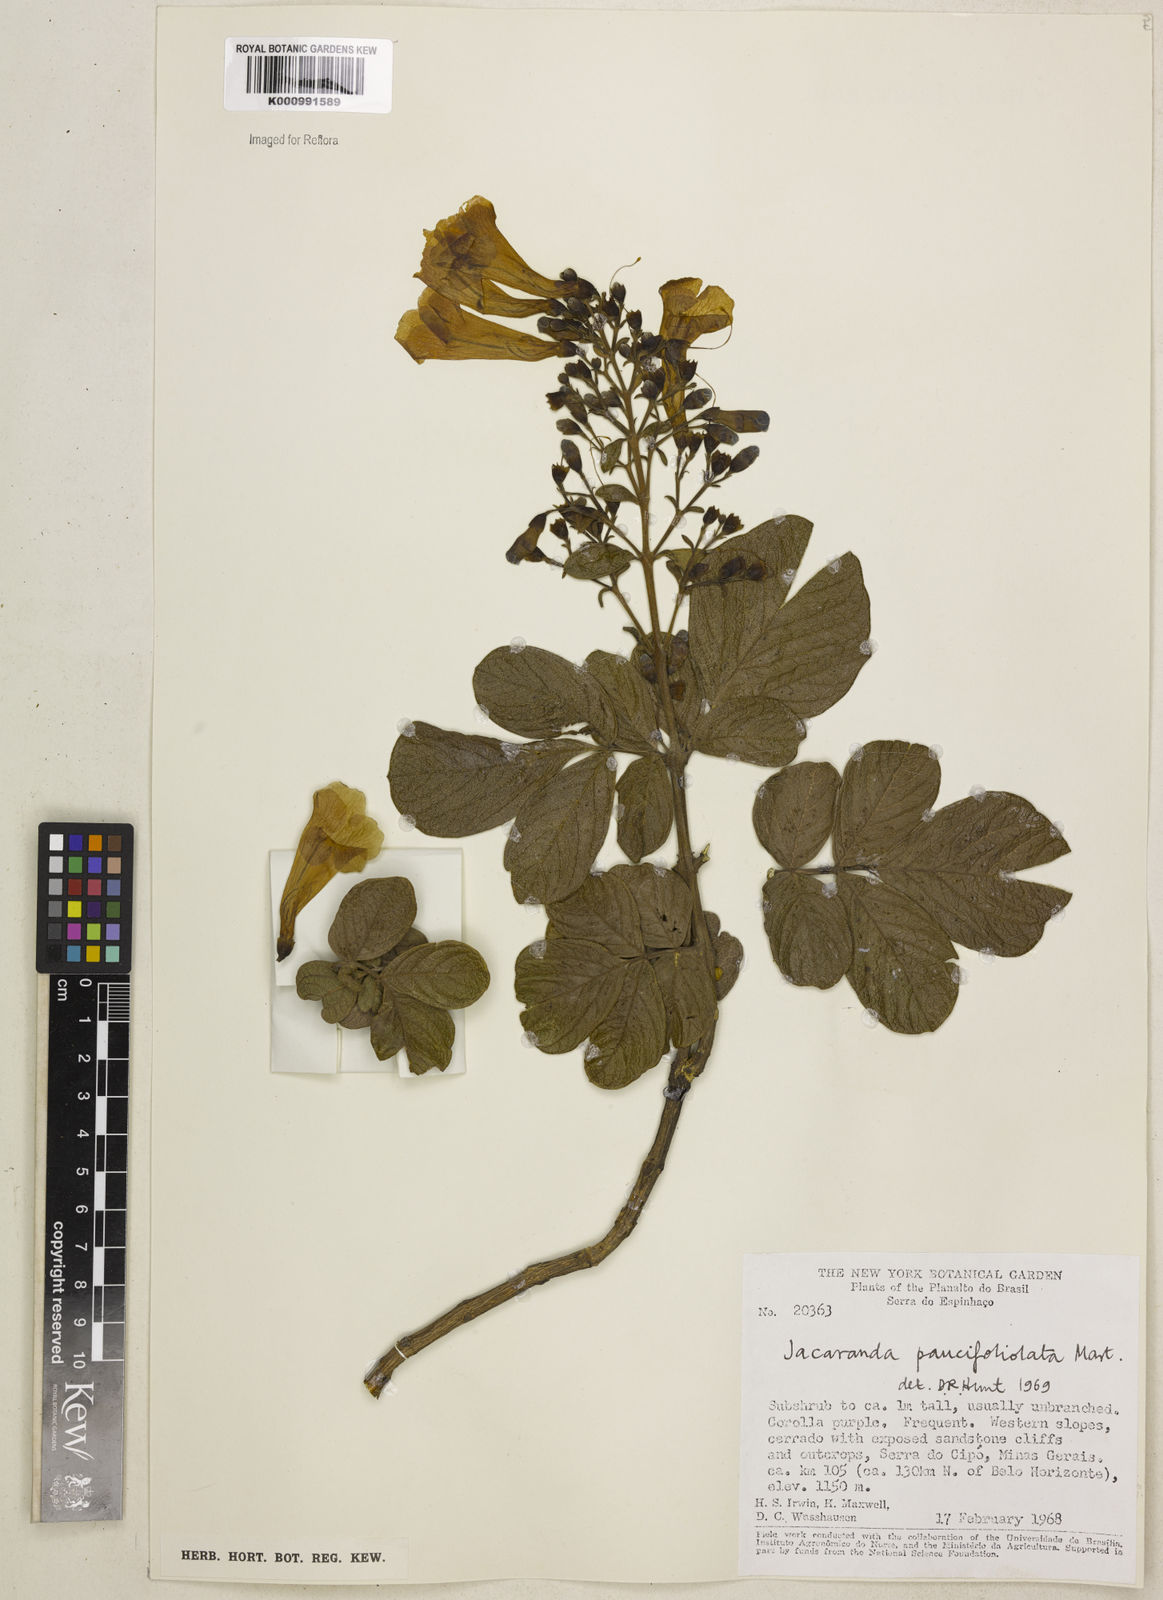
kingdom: Plantae
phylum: Tracheophyta
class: Magnoliopsida
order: Lamiales
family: Bignoniaceae
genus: Jacaranda
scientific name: Jacaranda
